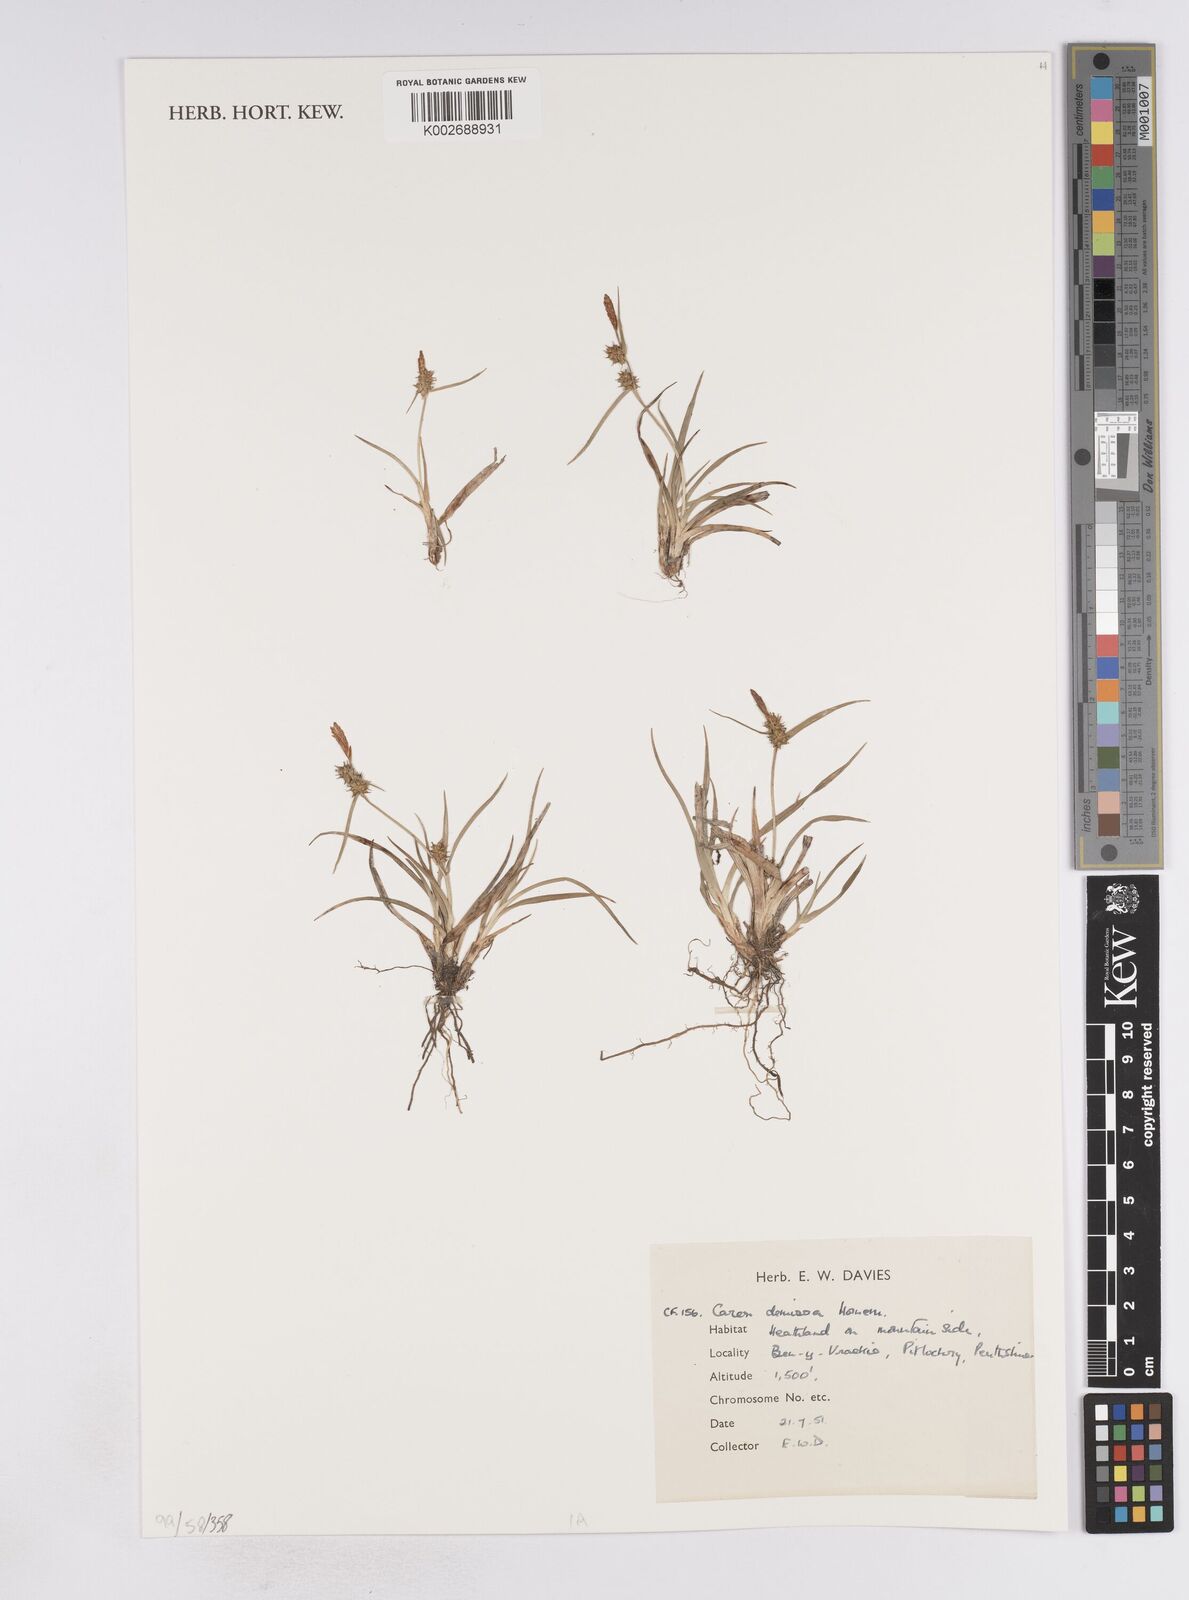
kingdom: Plantae
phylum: Tracheophyta
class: Liliopsida
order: Poales
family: Cyperaceae
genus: Carex
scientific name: Carex demissa
